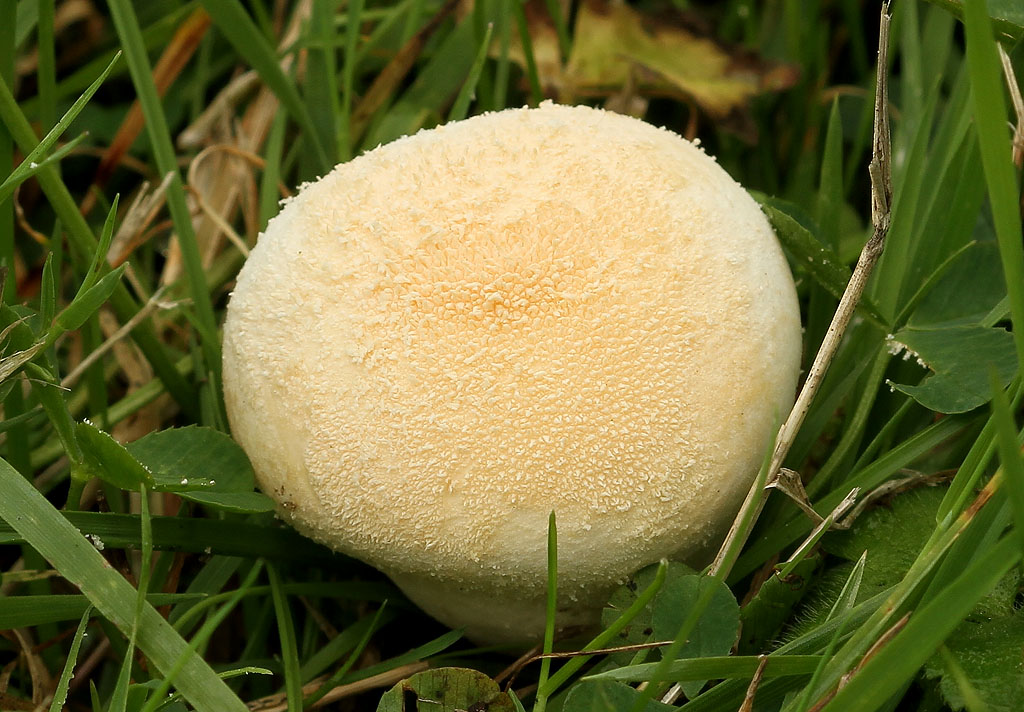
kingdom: Fungi
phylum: Basidiomycota
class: Agaricomycetes
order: Agaricales
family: Lycoperdaceae
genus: Lycoperdon
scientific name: Lycoperdon pratense
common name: flad støvbold
